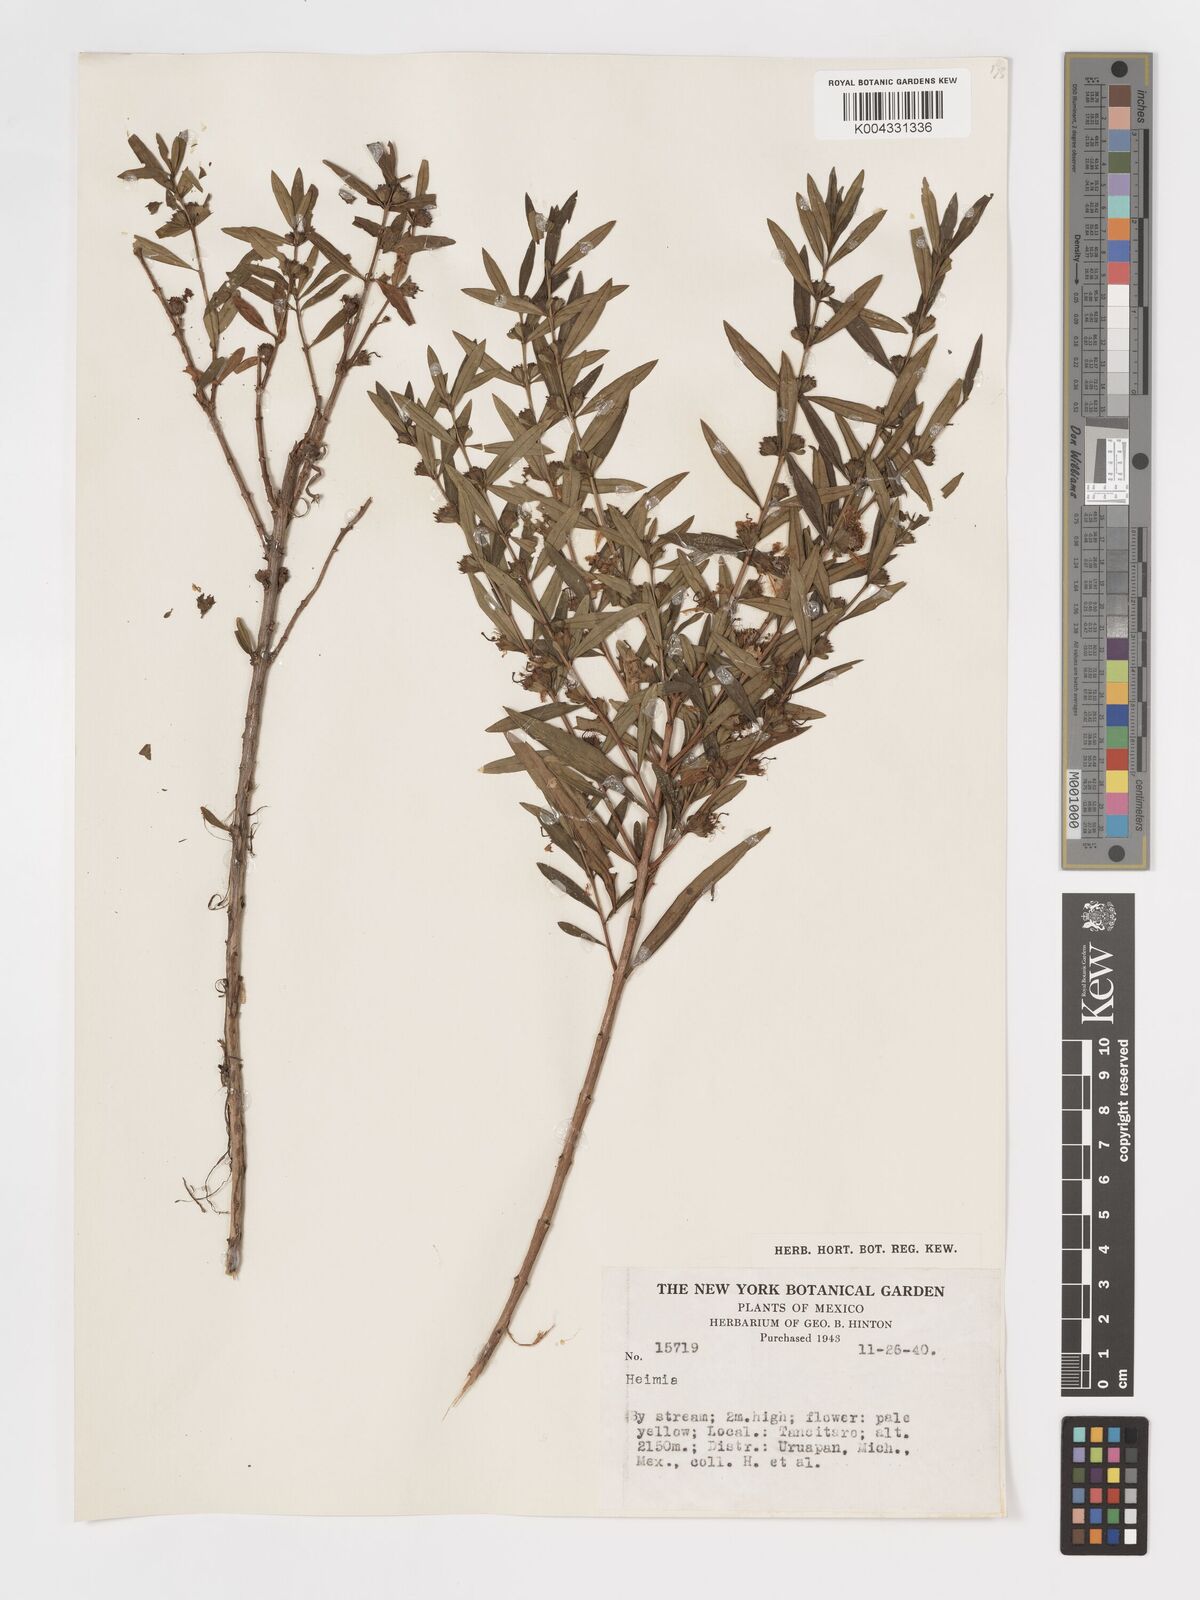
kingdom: Plantae
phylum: Tracheophyta
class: Magnoliopsida
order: Myrtales
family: Lythraceae
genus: Heimia
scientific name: Heimia
